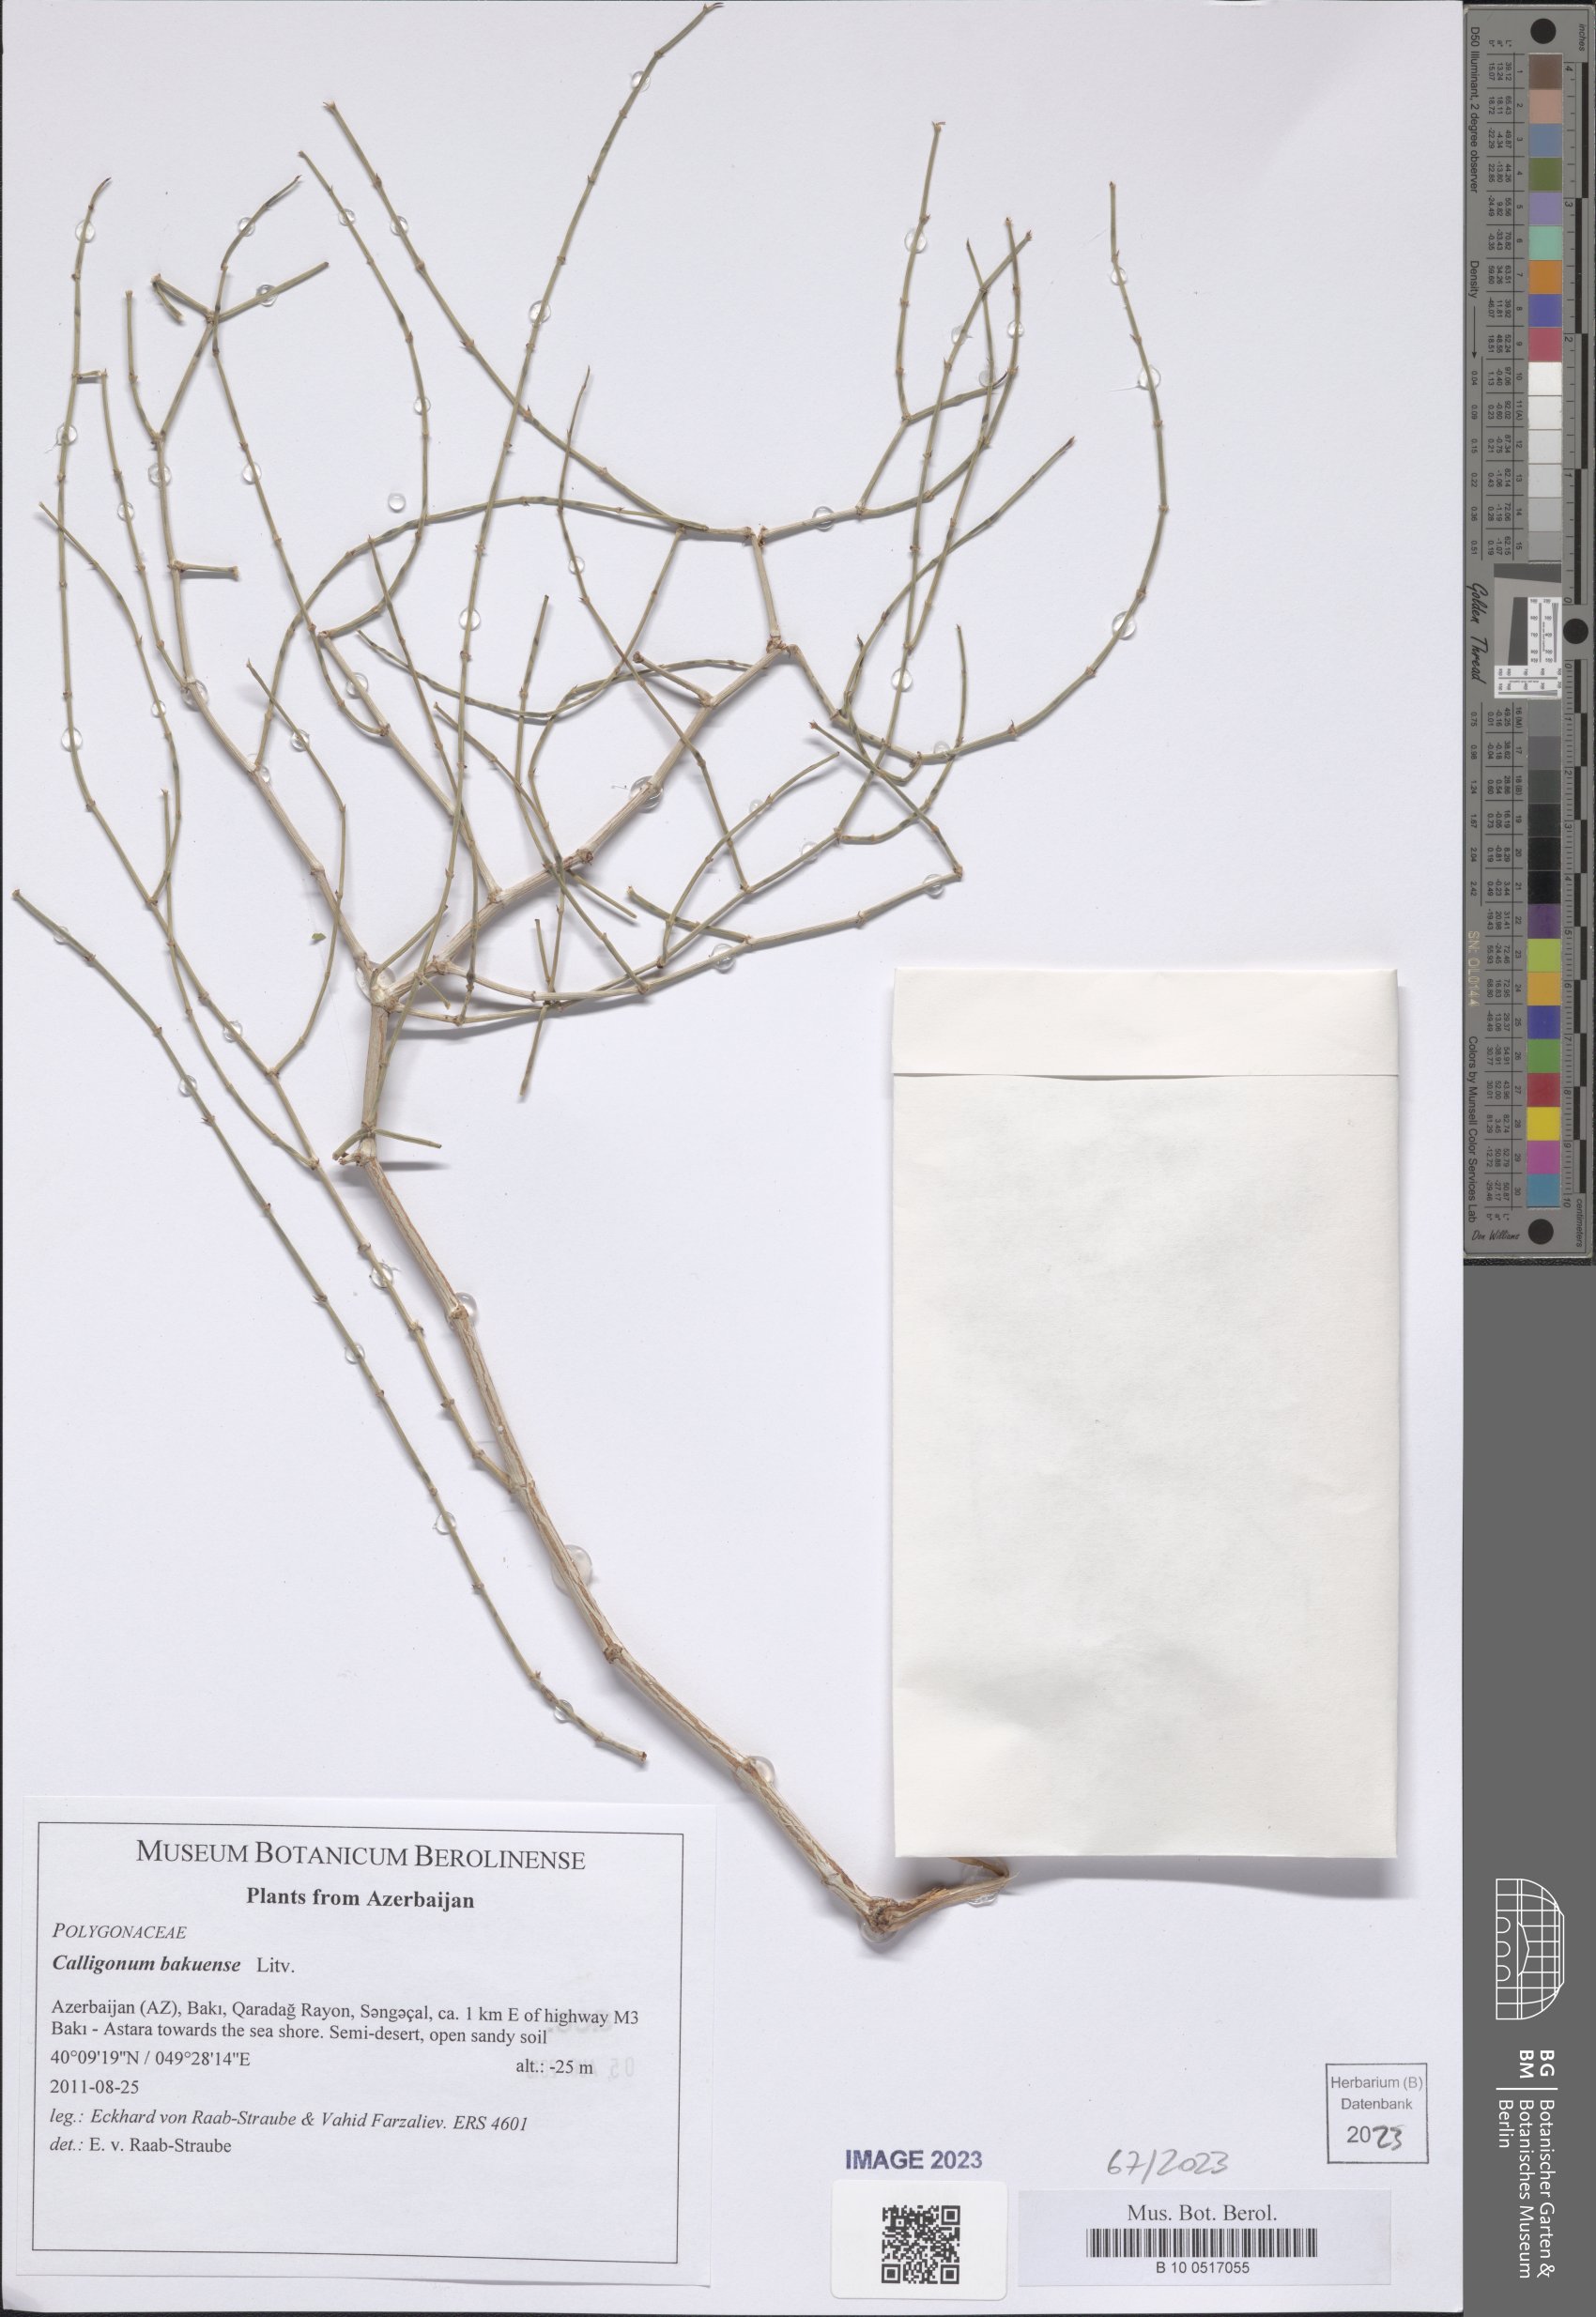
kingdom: Plantae
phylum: Tracheophyta
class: Magnoliopsida
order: Caryophyllales
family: Polygonaceae
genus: Calligonum
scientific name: Calligonum bakuense
